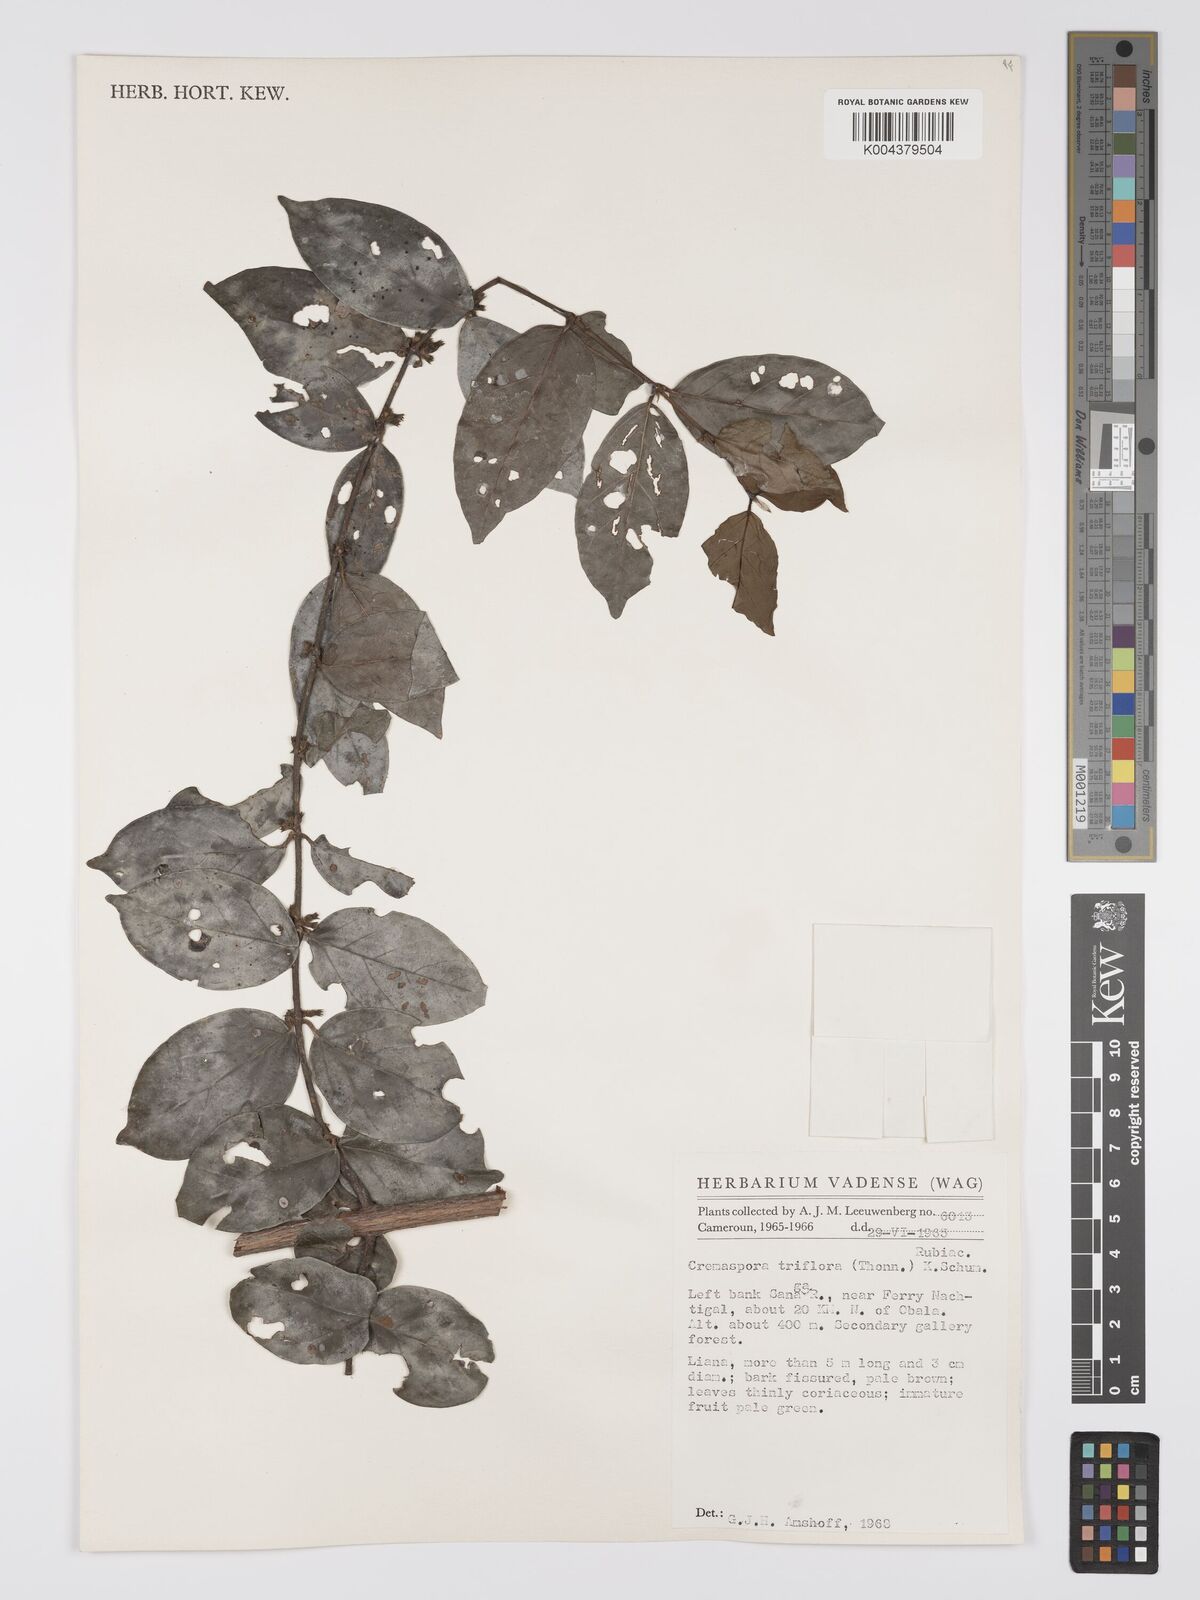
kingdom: Plantae
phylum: Tracheophyta
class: Magnoliopsida
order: Gentianales
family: Rubiaceae
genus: Cremaspora
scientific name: Cremaspora triflora
